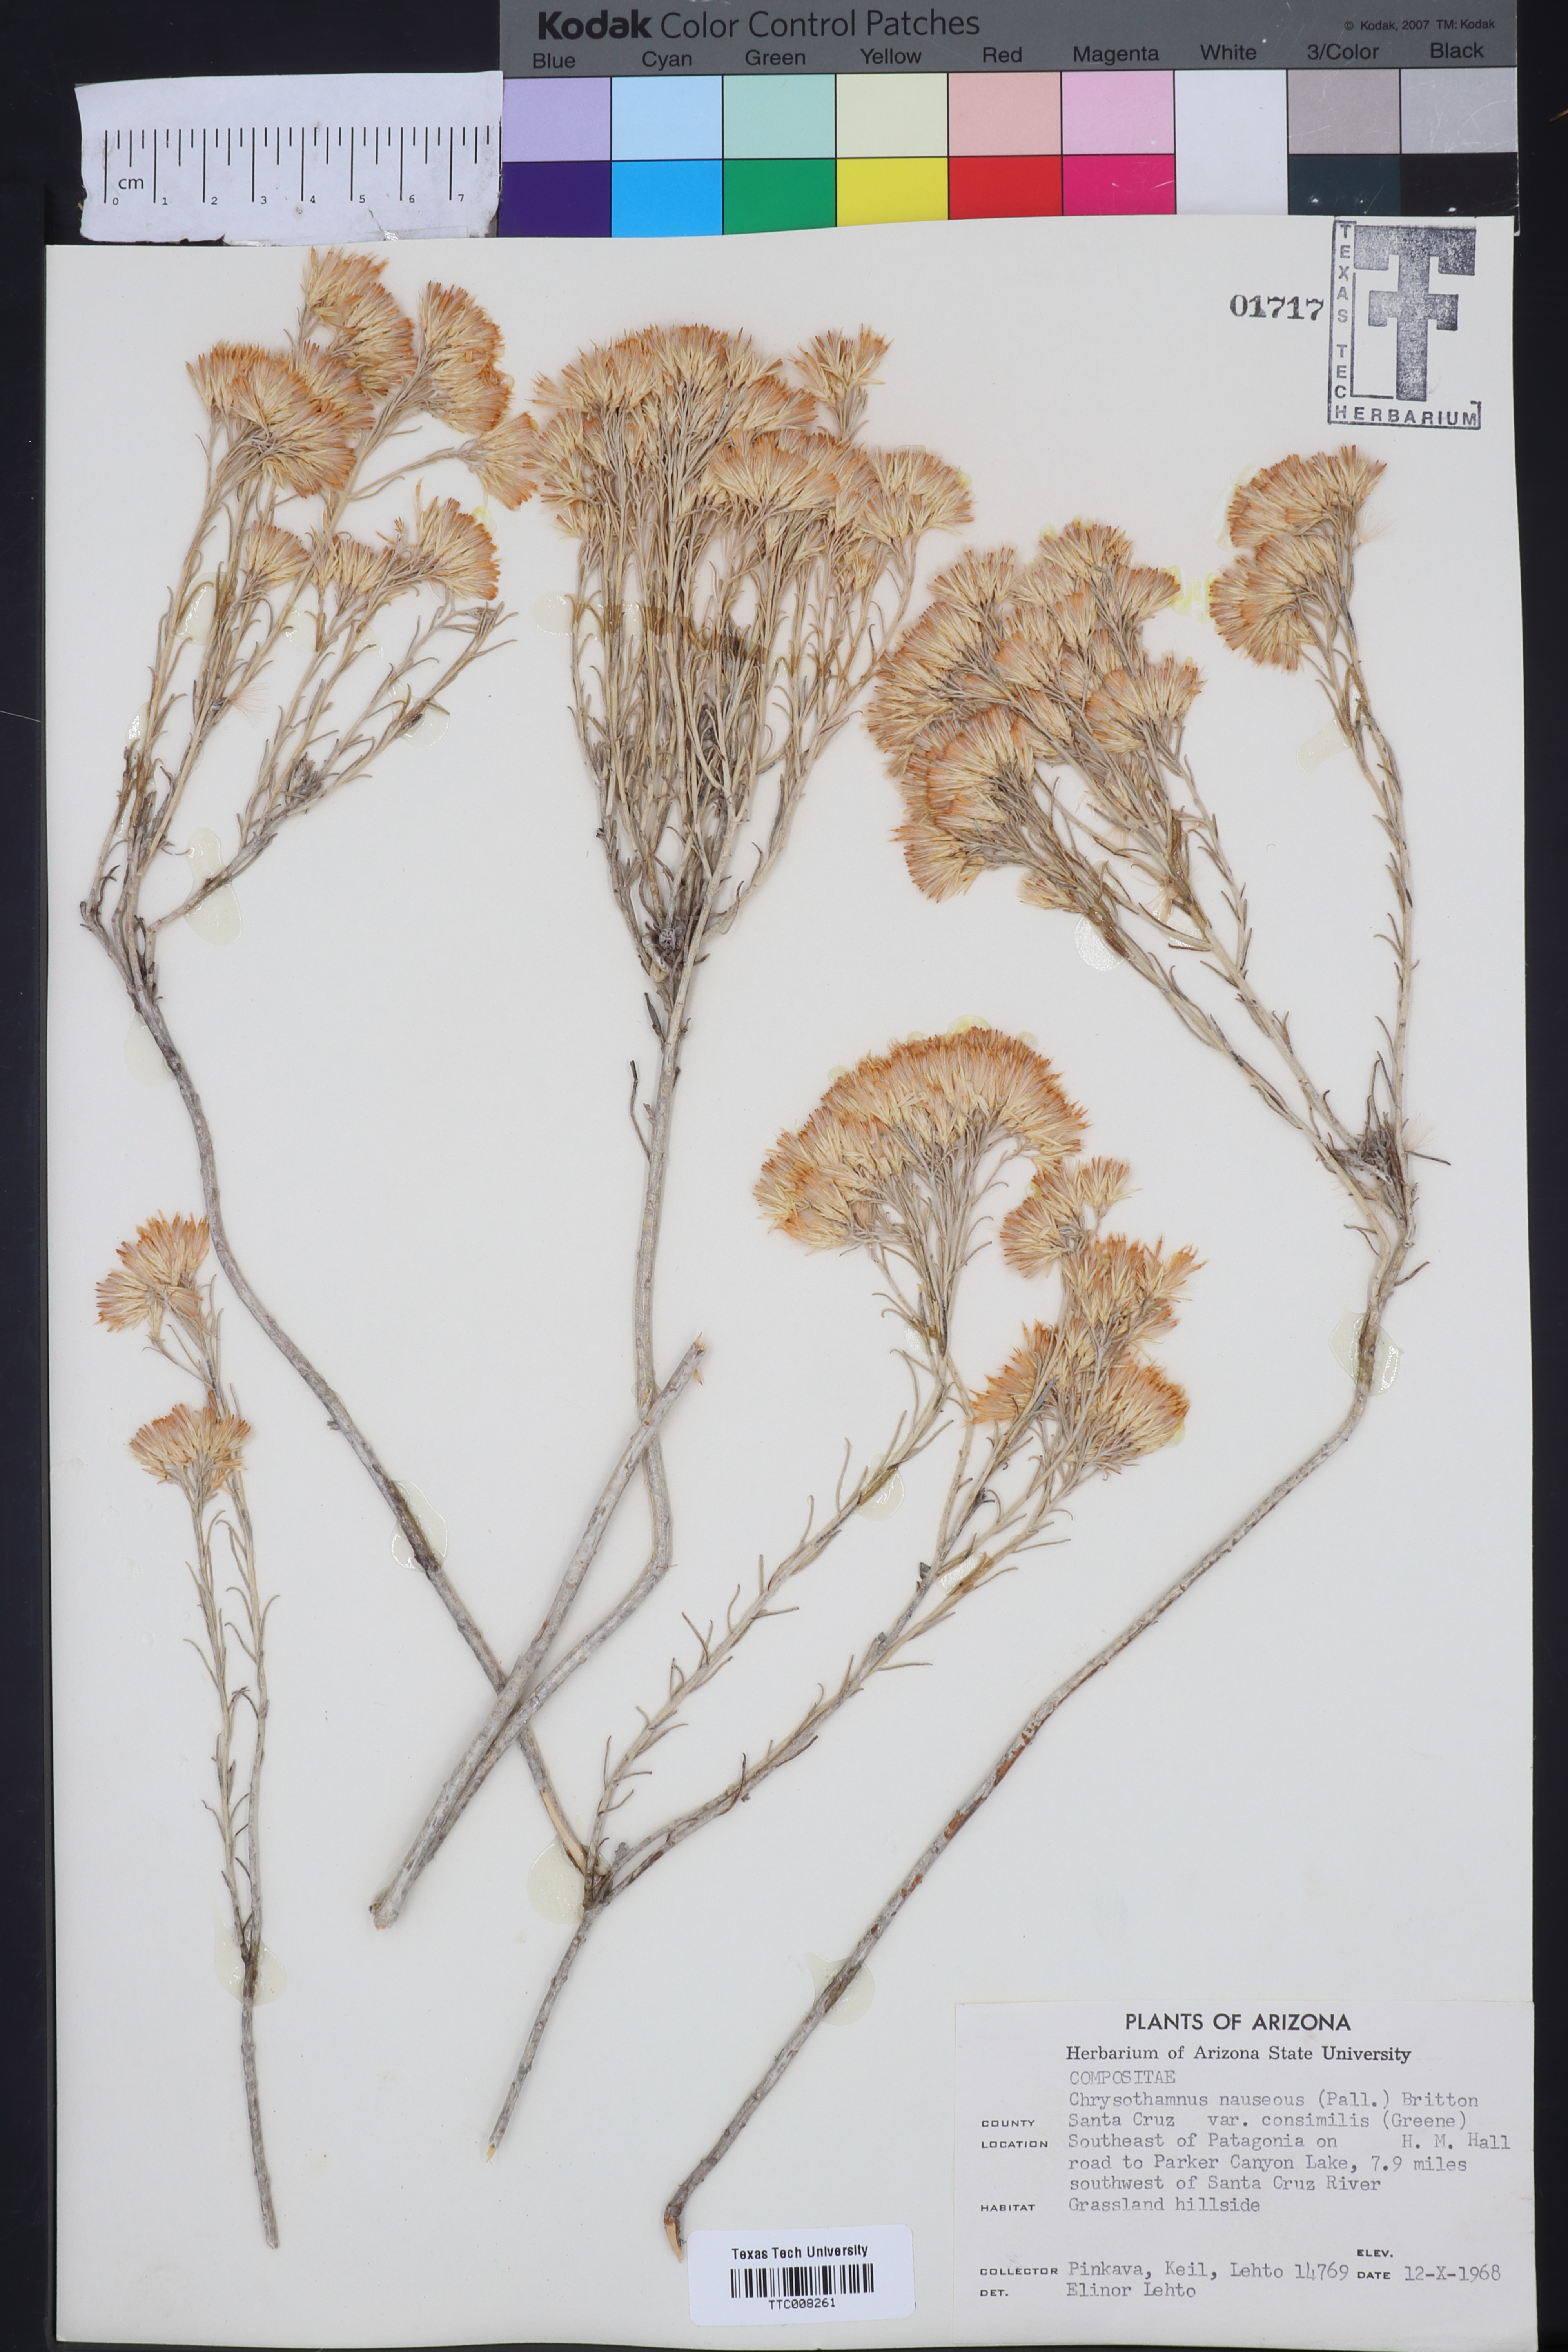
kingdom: Plantae
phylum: Tracheophyta
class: Magnoliopsida
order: Asterales
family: Asteraceae
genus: Ericameria
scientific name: Ericameria nauseosa
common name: Rubber rabbitbrush
